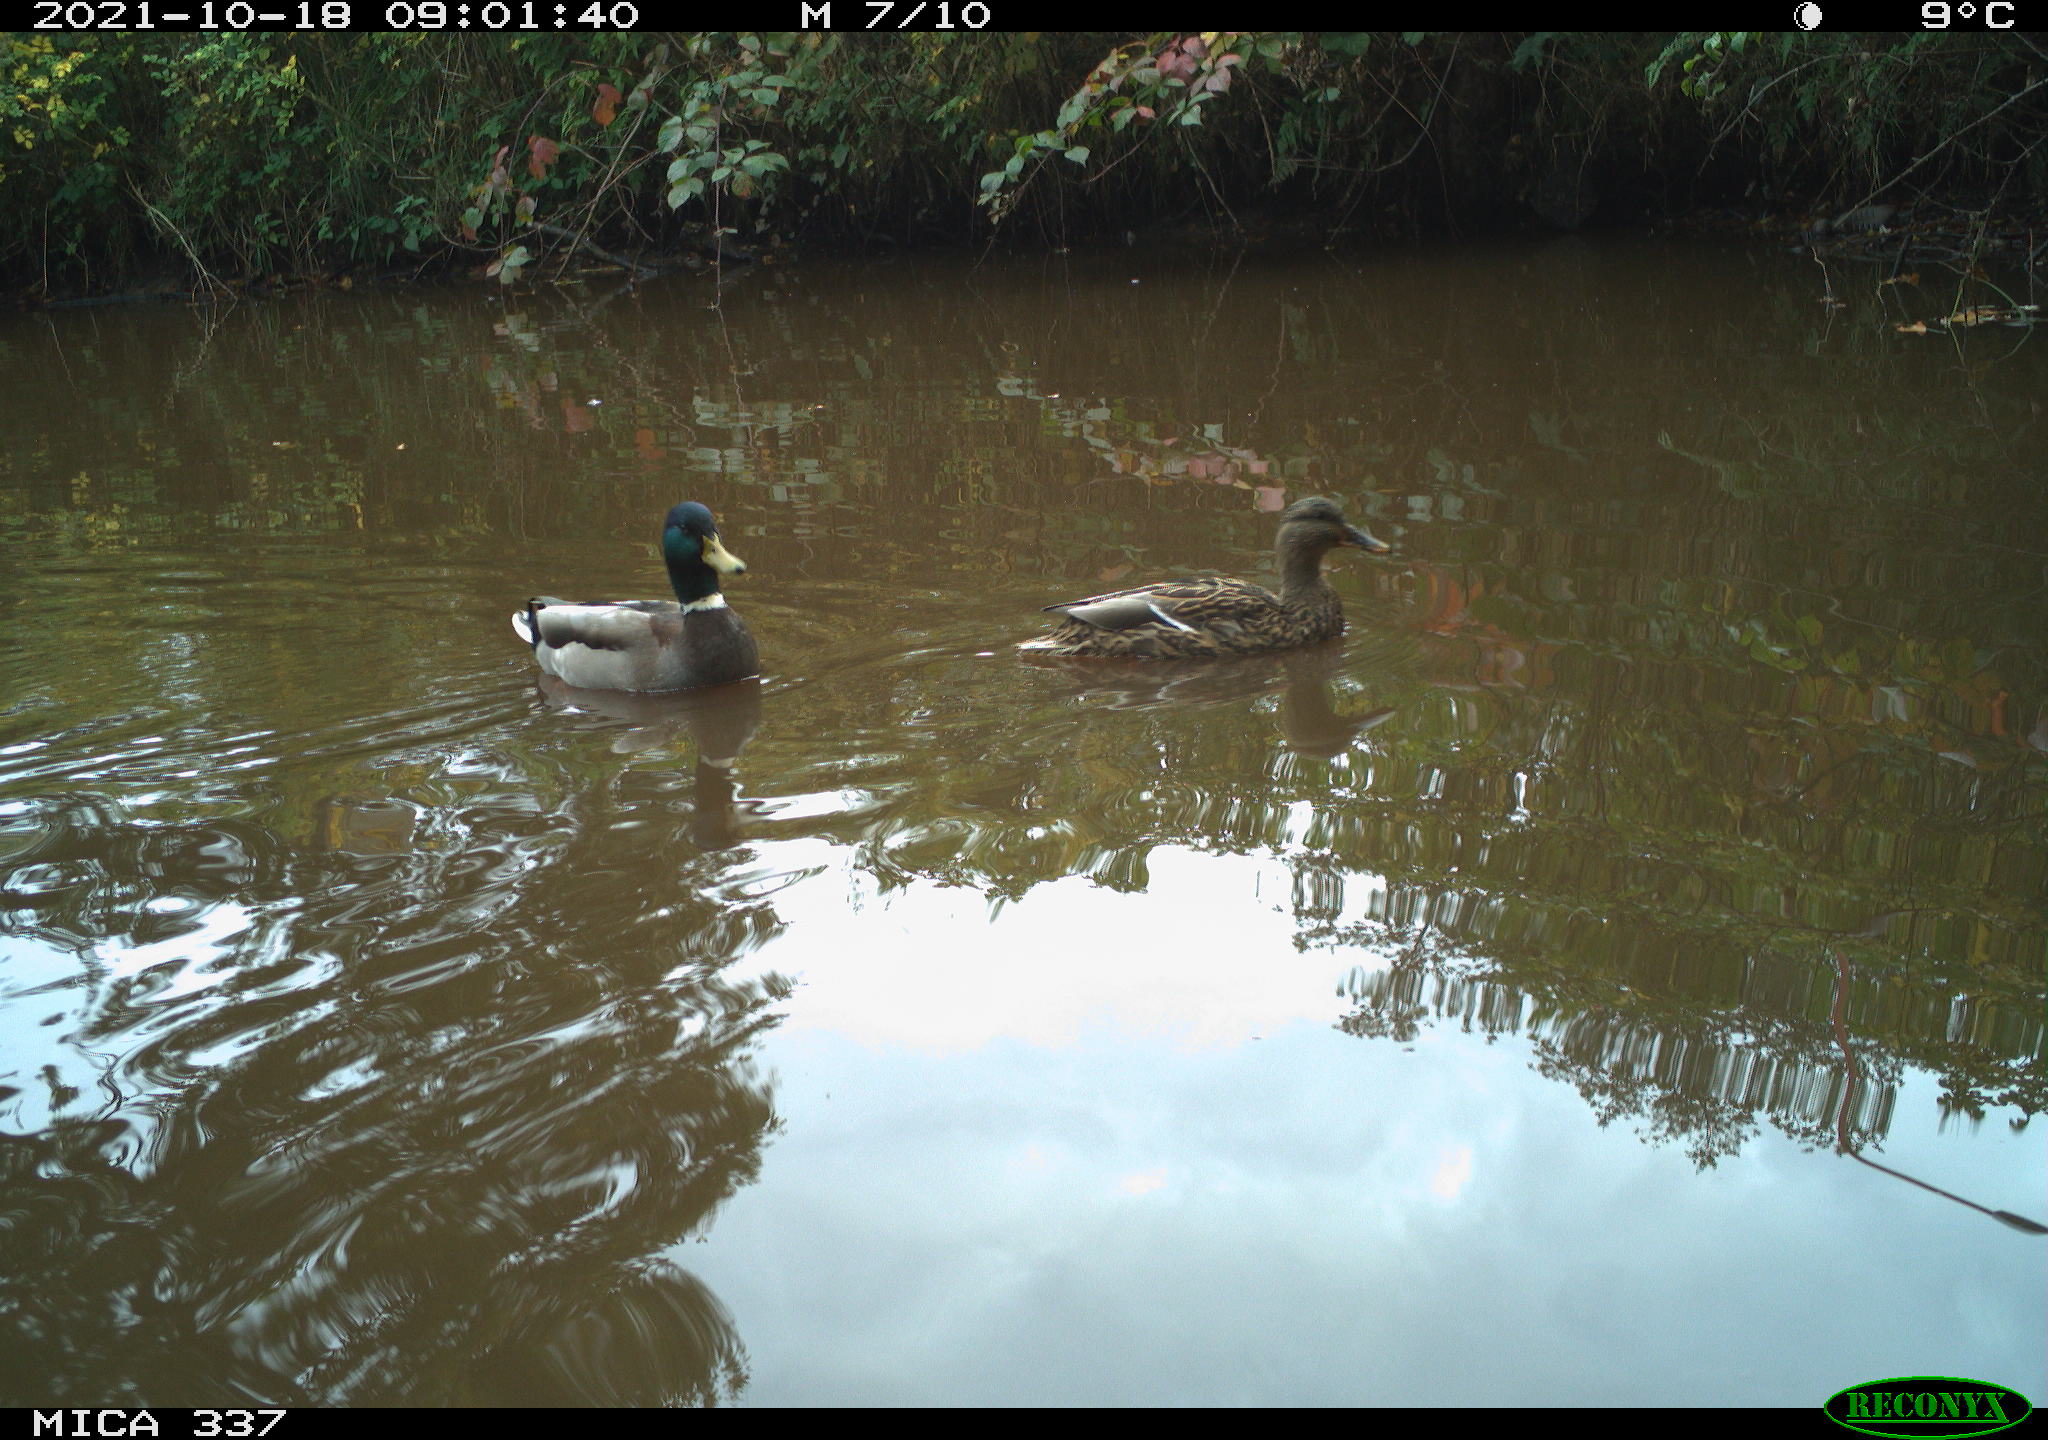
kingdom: Animalia
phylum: Chordata
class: Aves
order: Anseriformes
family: Anatidae
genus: Anas
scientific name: Anas platyrhynchos
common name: Mallard
